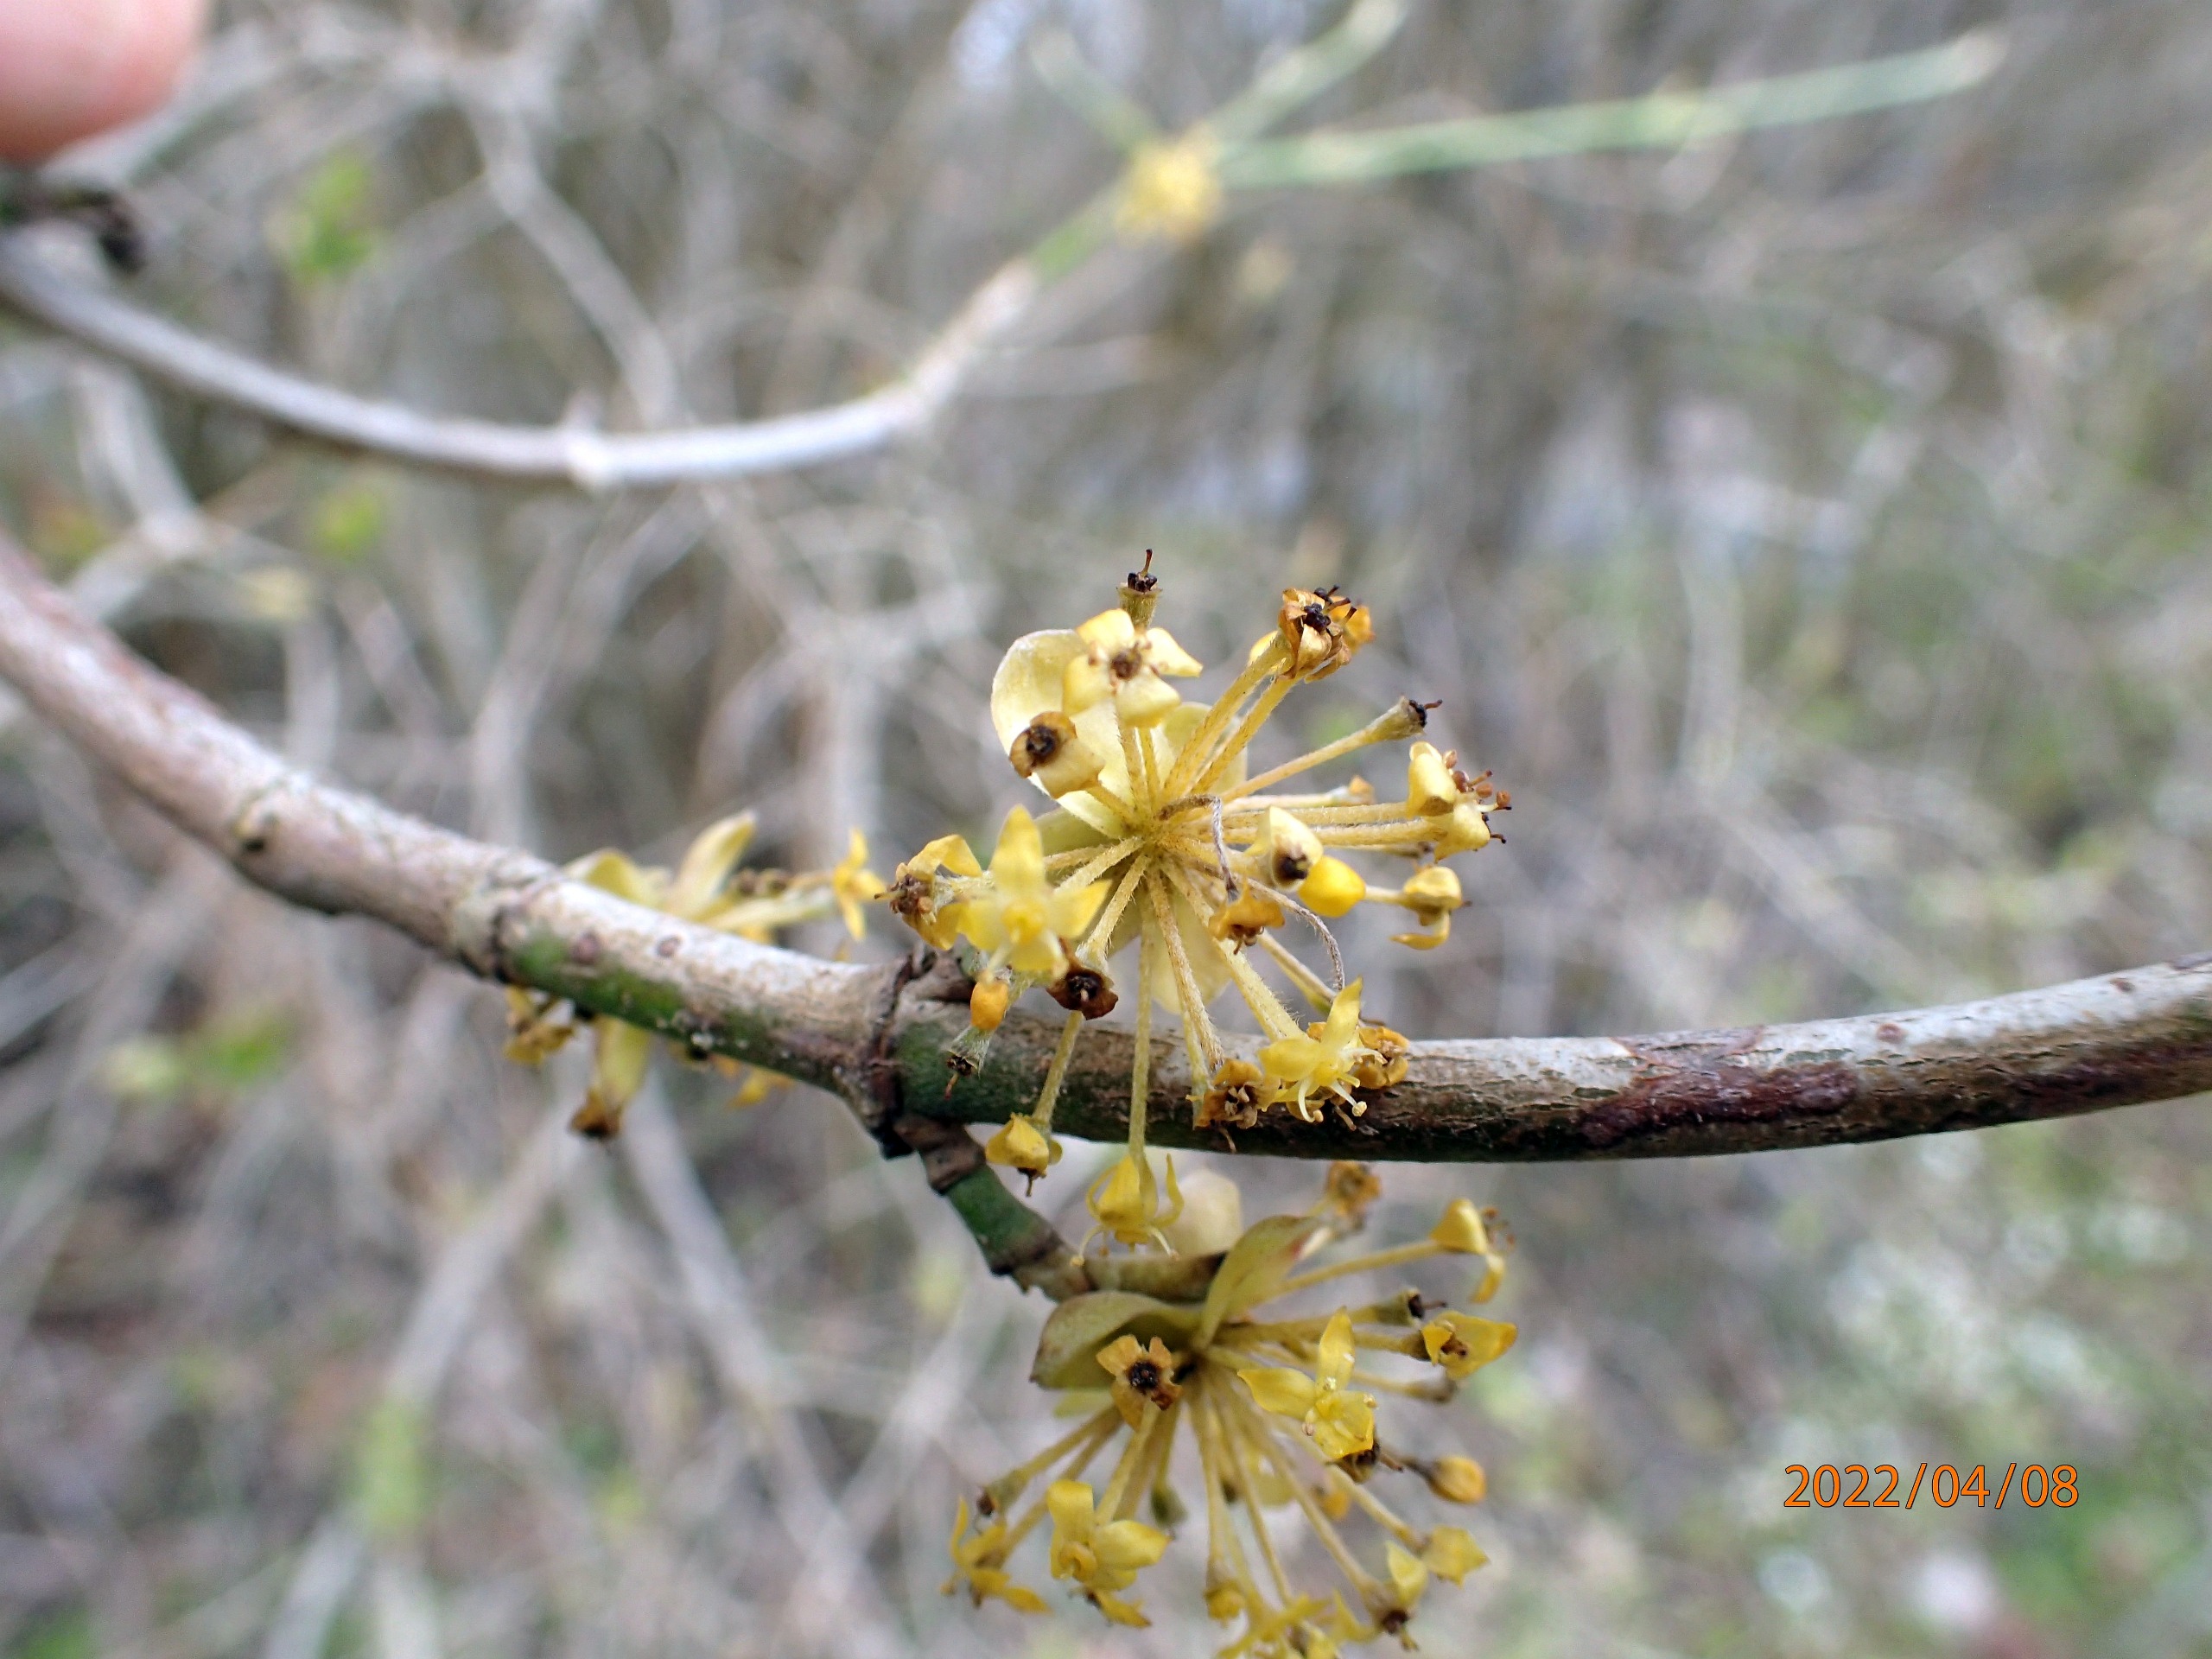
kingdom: Plantae
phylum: Tracheophyta
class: Magnoliopsida
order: Cornales
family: Cornaceae
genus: Cornus
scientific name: Cornus mas
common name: Kirsebær-kornel
